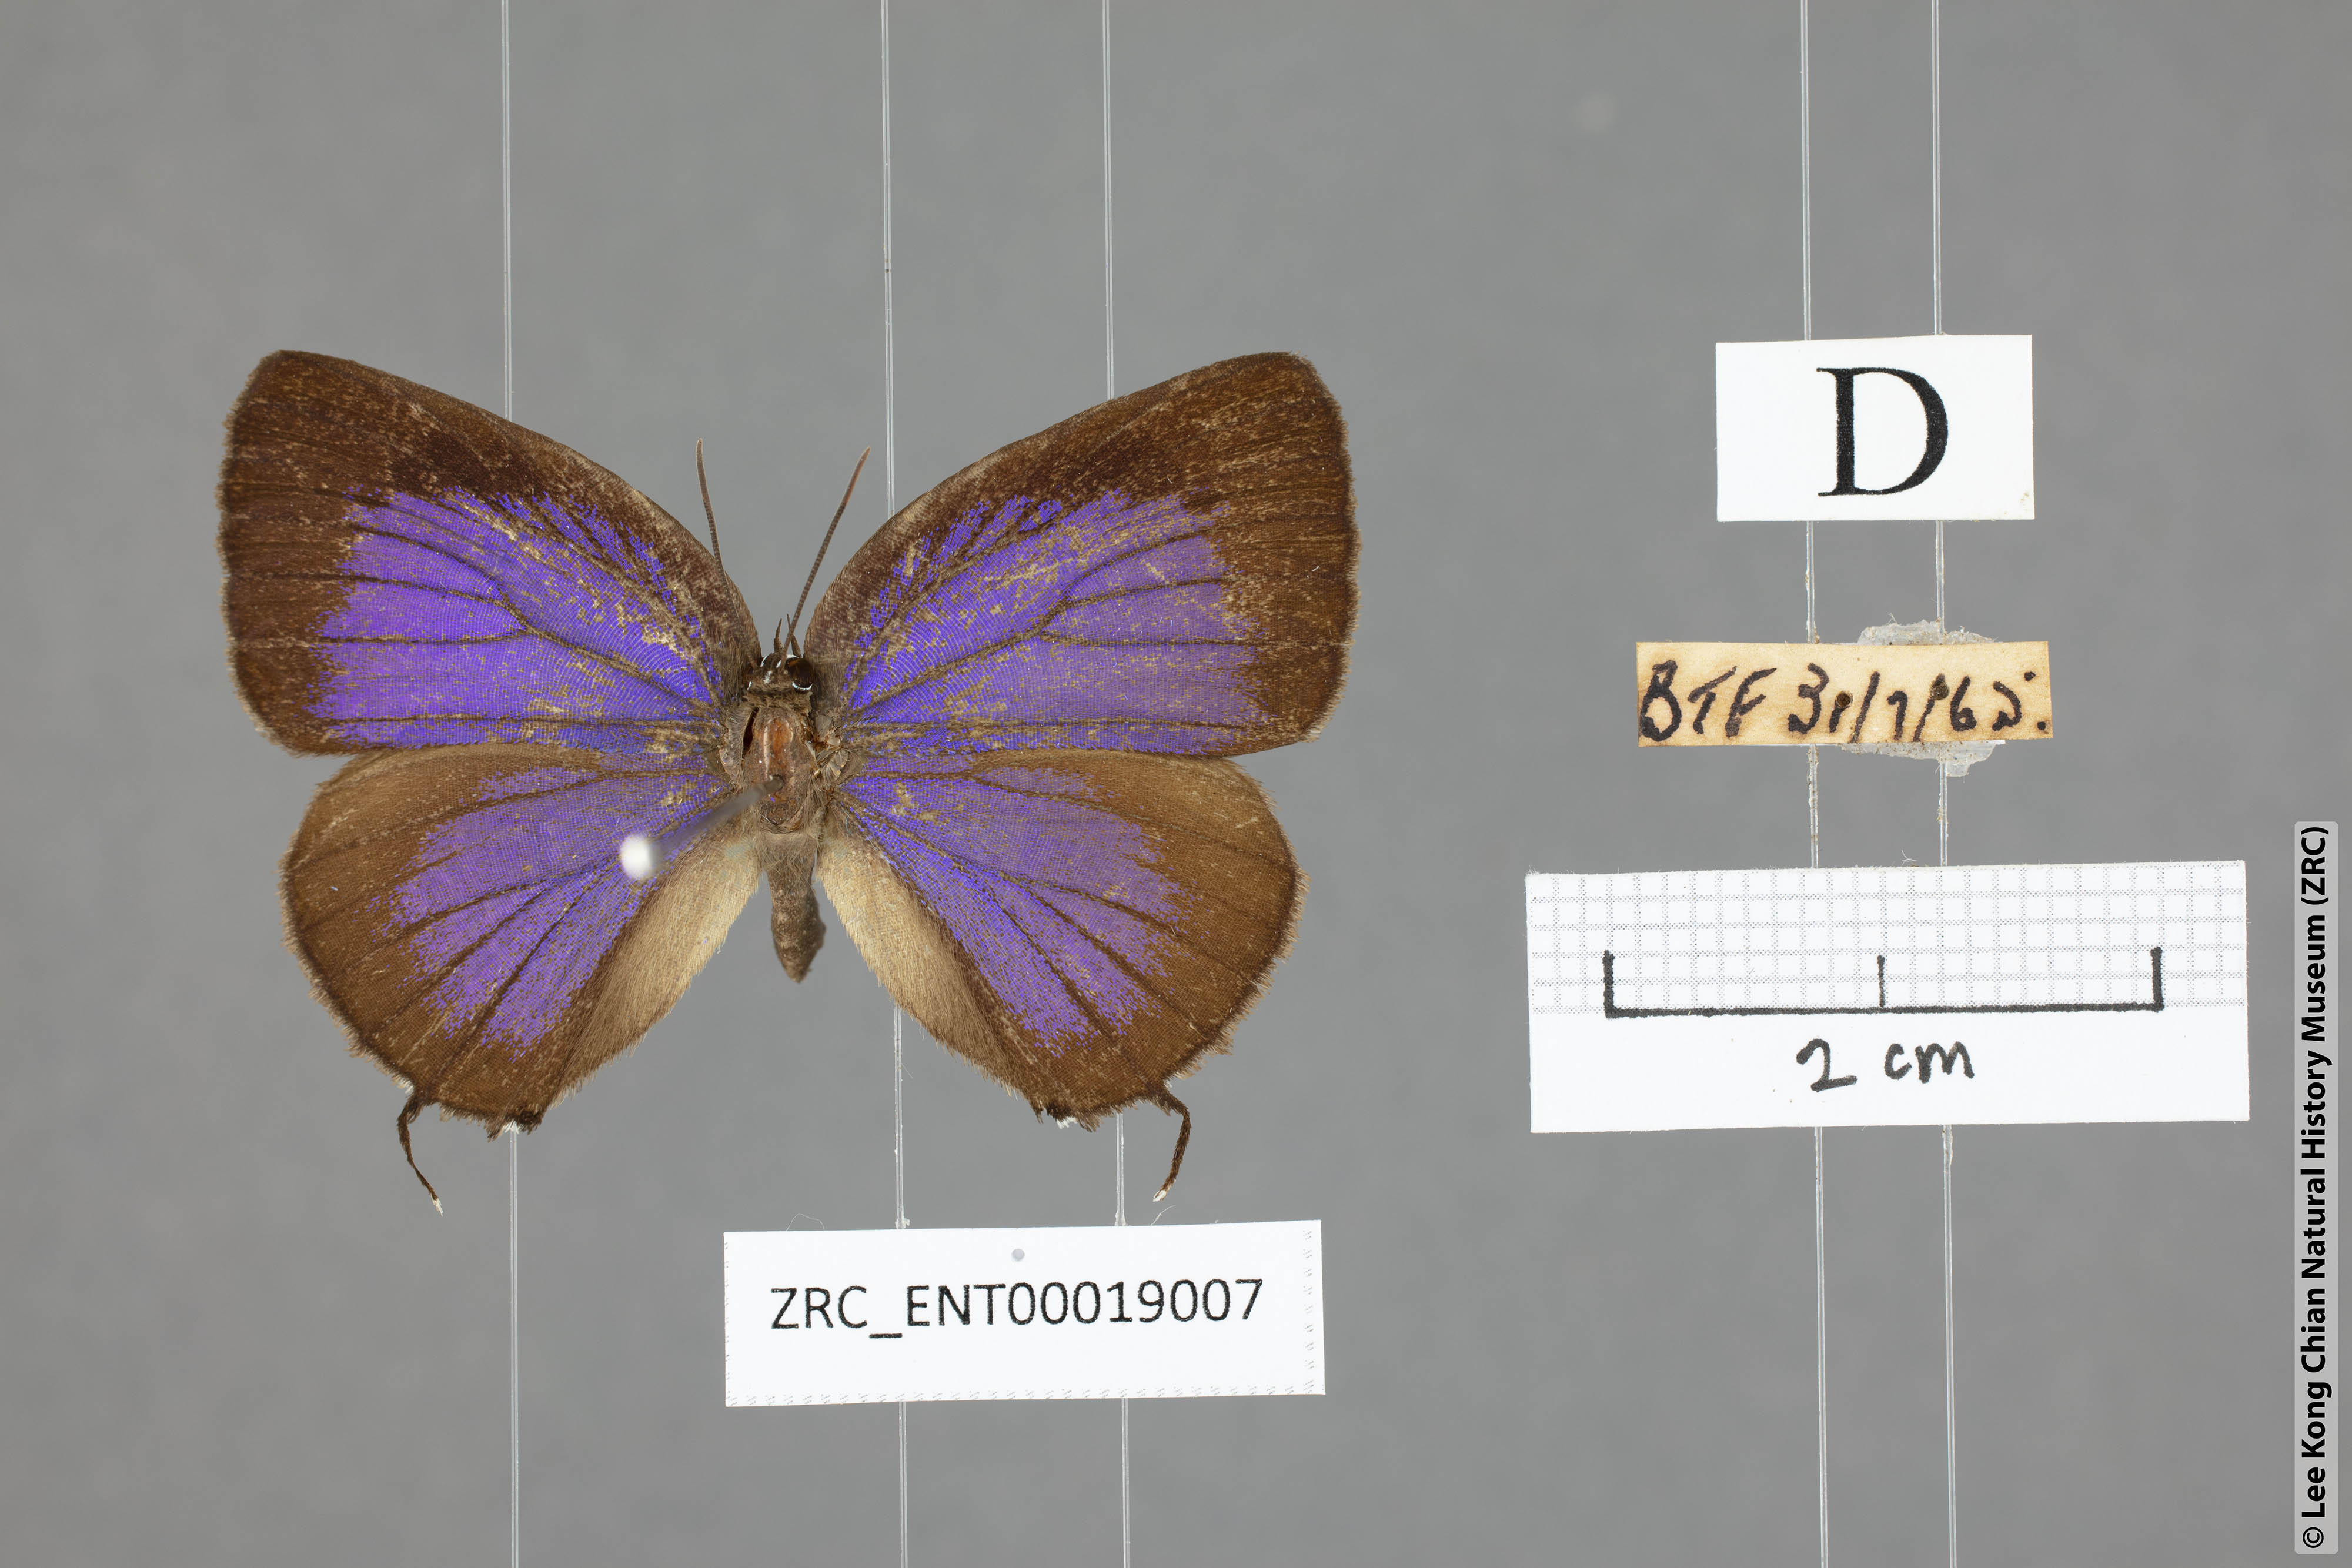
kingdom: Animalia
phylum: Arthropoda
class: Insecta
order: Lepidoptera
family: Lycaenidae
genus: Arhopala
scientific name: Arhopala aedias
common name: Large metallic oakblue
